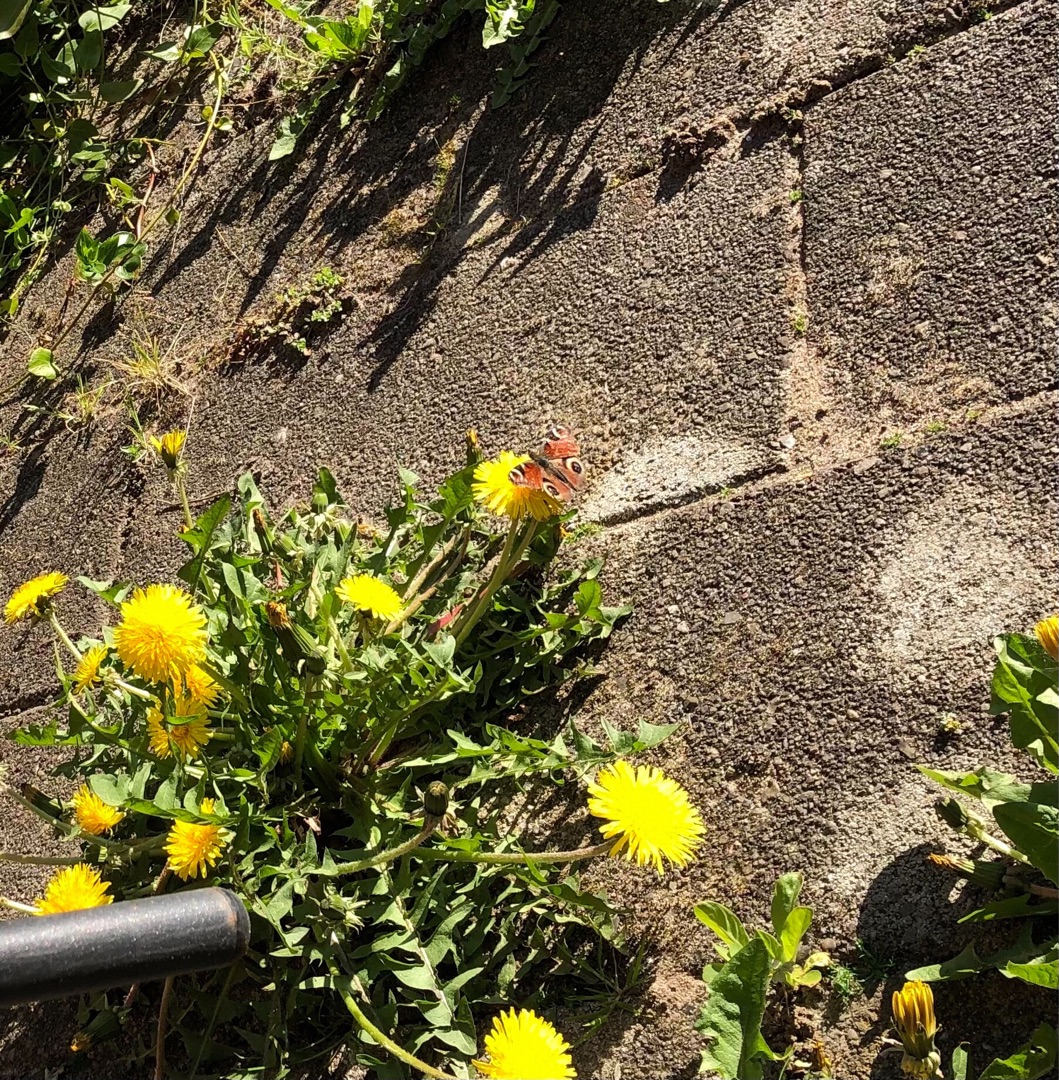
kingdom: Animalia
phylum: Arthropoda
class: Insecta
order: Lepidoptera
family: Nymphalidae
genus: Aglais
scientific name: Aglais io
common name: Dagpåfugleøje
